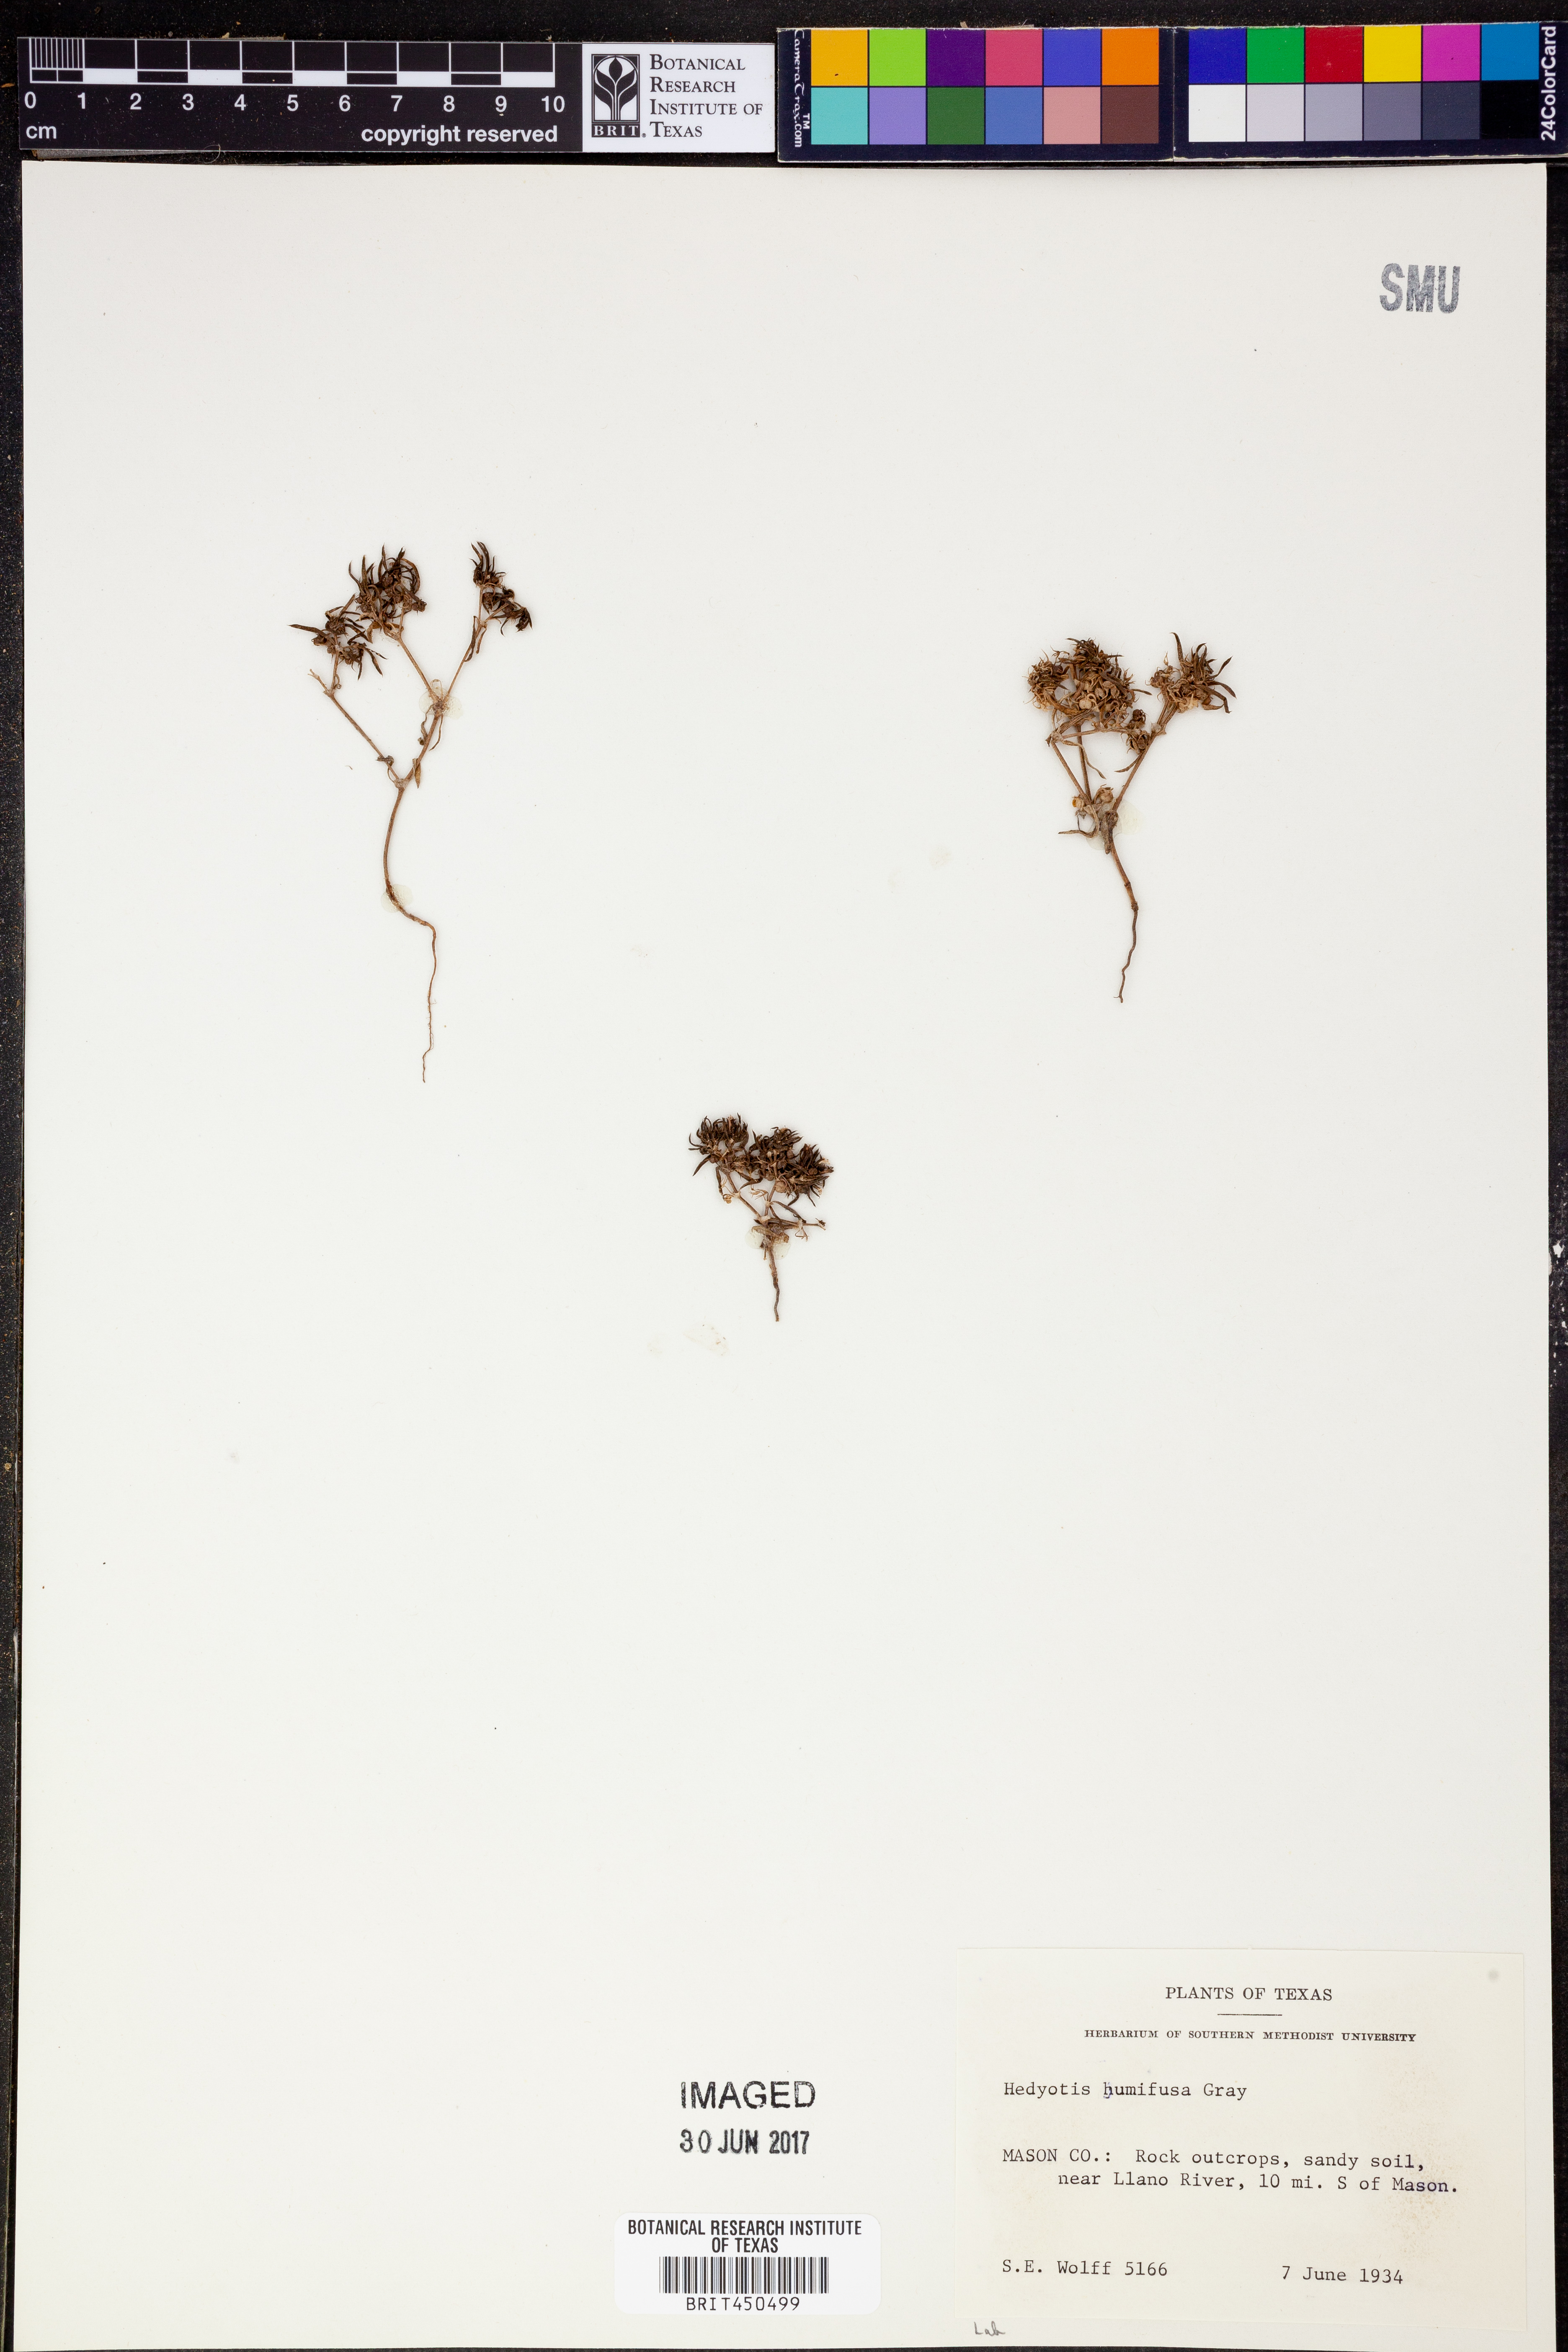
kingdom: Plantae
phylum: Tracheophyta
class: Magnoliopsida
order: Gentianales
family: Rubiaceae
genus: Houstonia
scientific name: Houstonia humifusa
